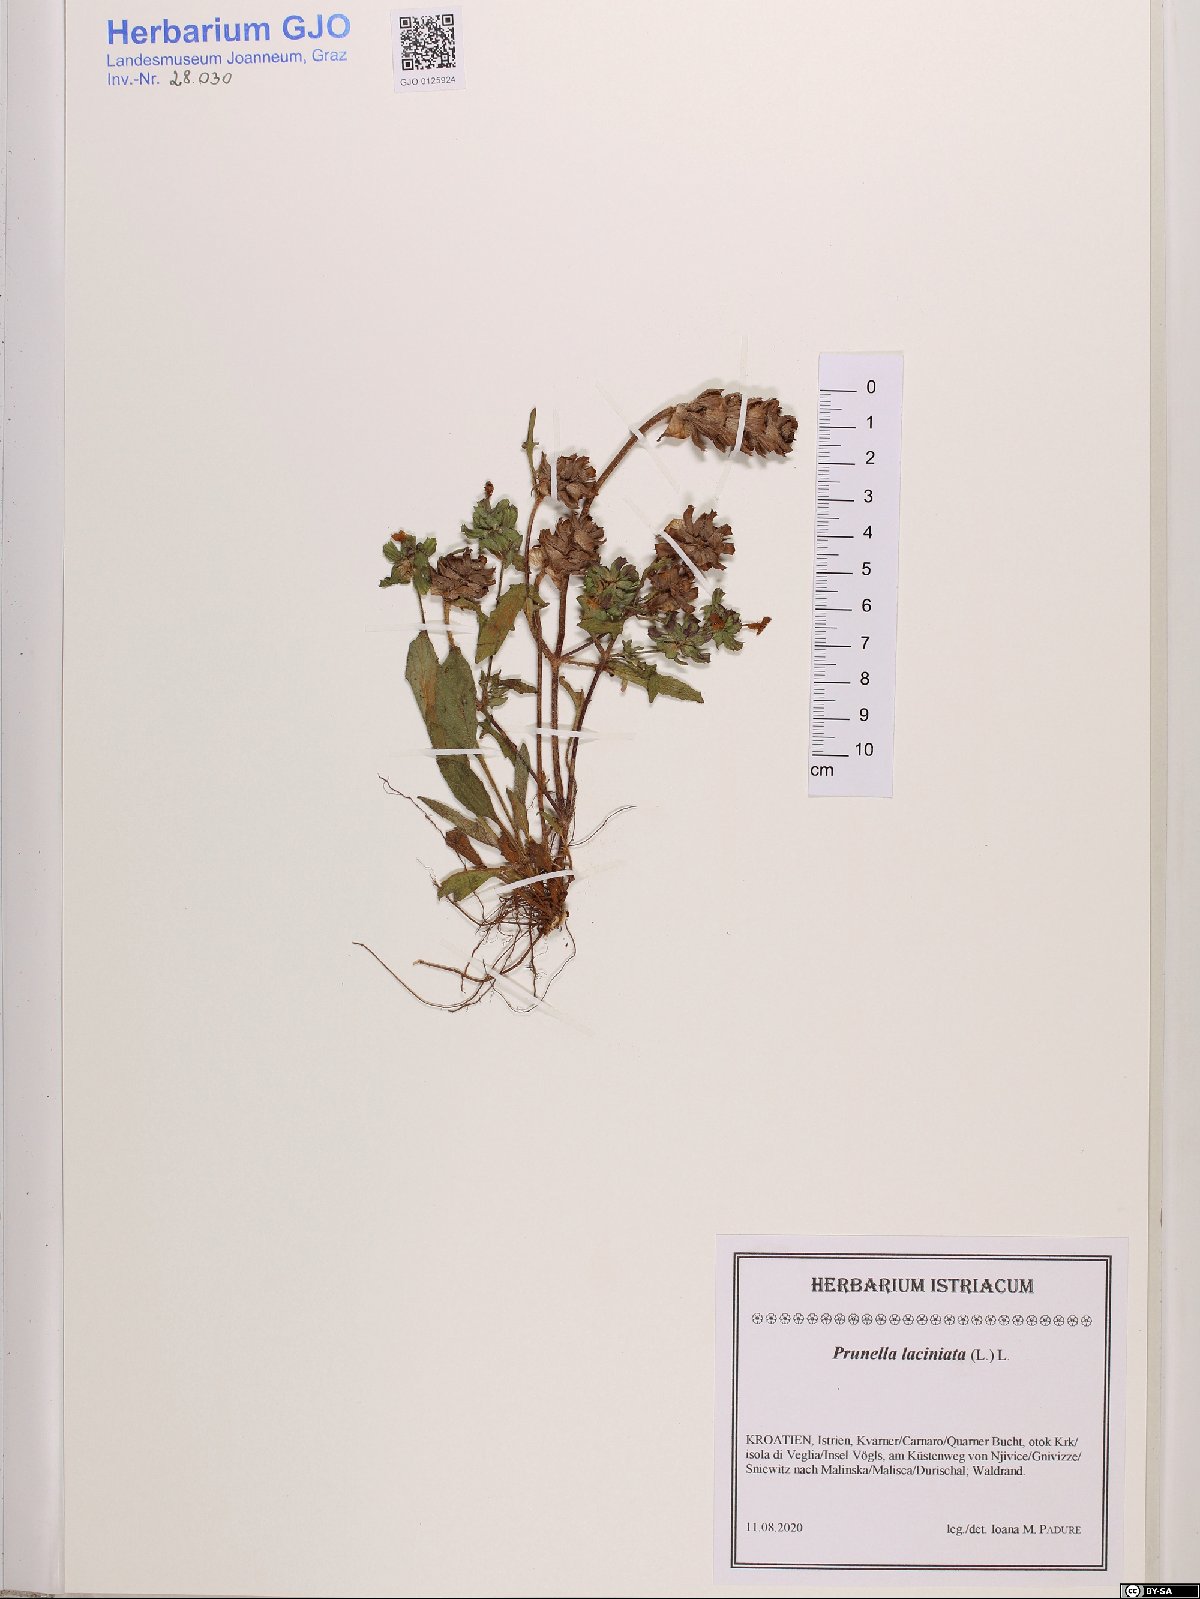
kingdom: Plantae
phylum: Tracheophyta
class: Magnoliopsida
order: Lamiales
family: Lamiaceae
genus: Prunella
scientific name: Prunella laciniata
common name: Cut-leaved selfheal
